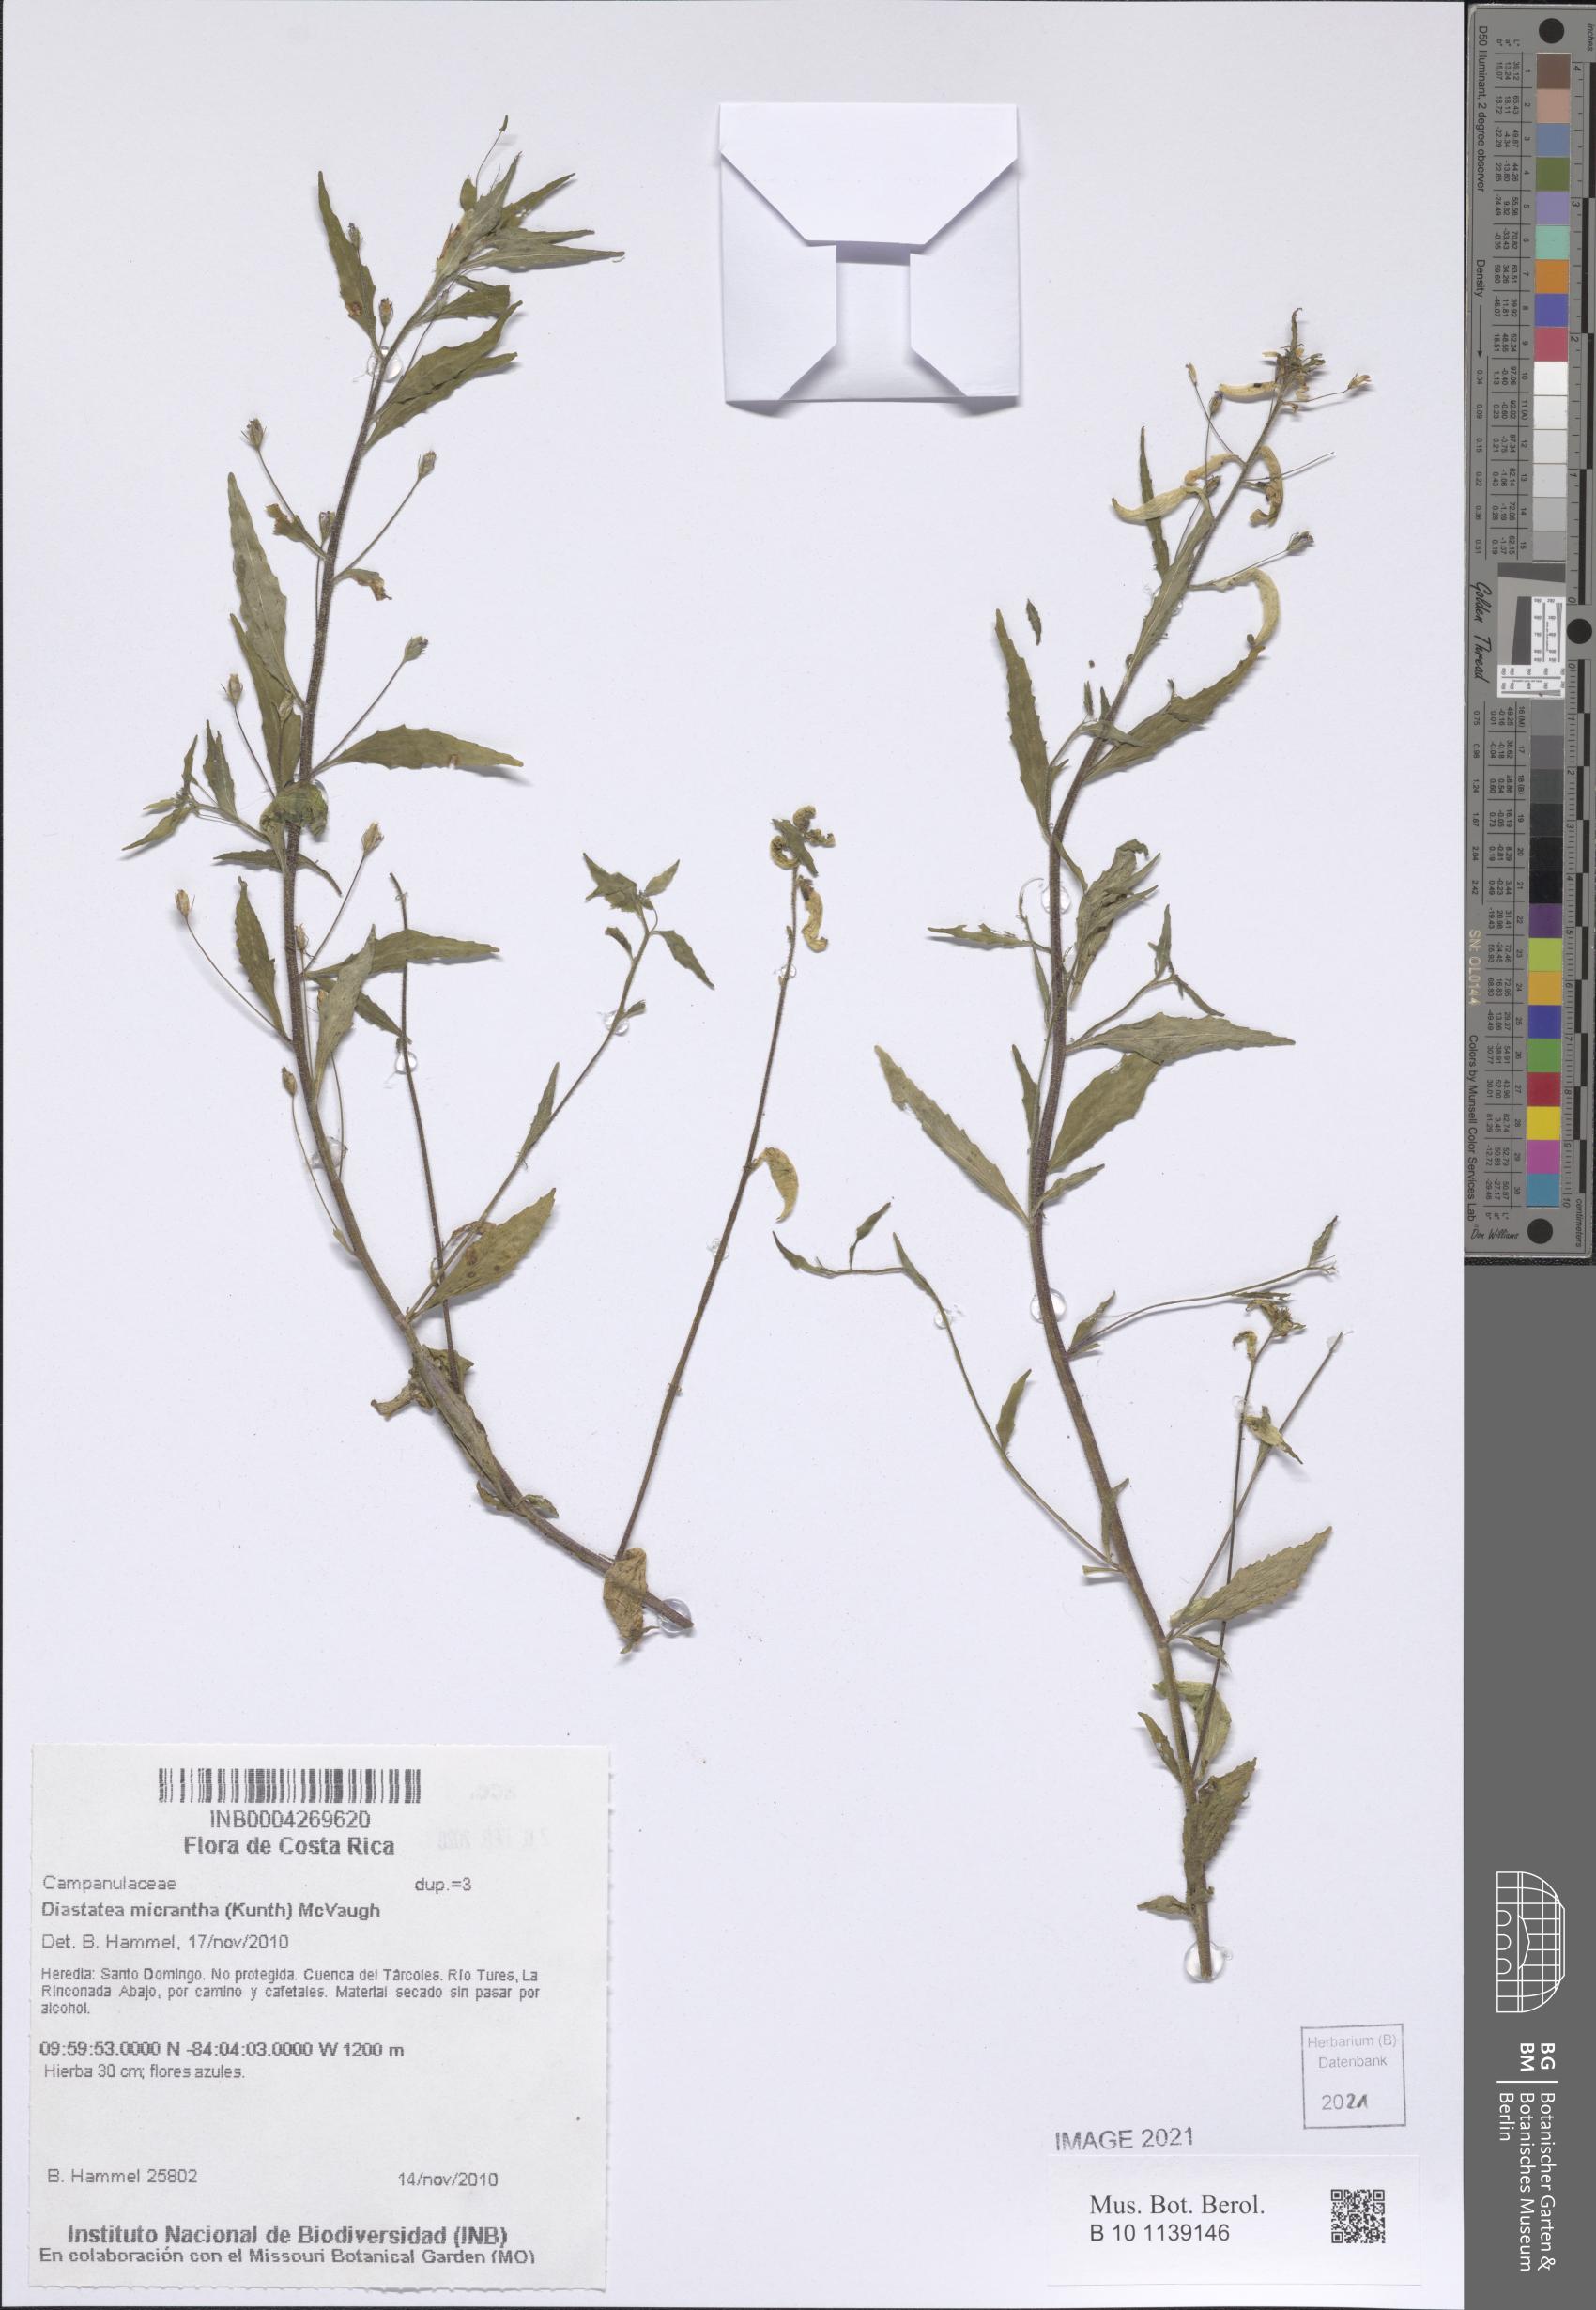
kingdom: Plantae
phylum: Tracheophyta
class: Magnoliopsida
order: Asterales
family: Campanulaceae
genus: Diastatea
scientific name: Diastatea micrantha
